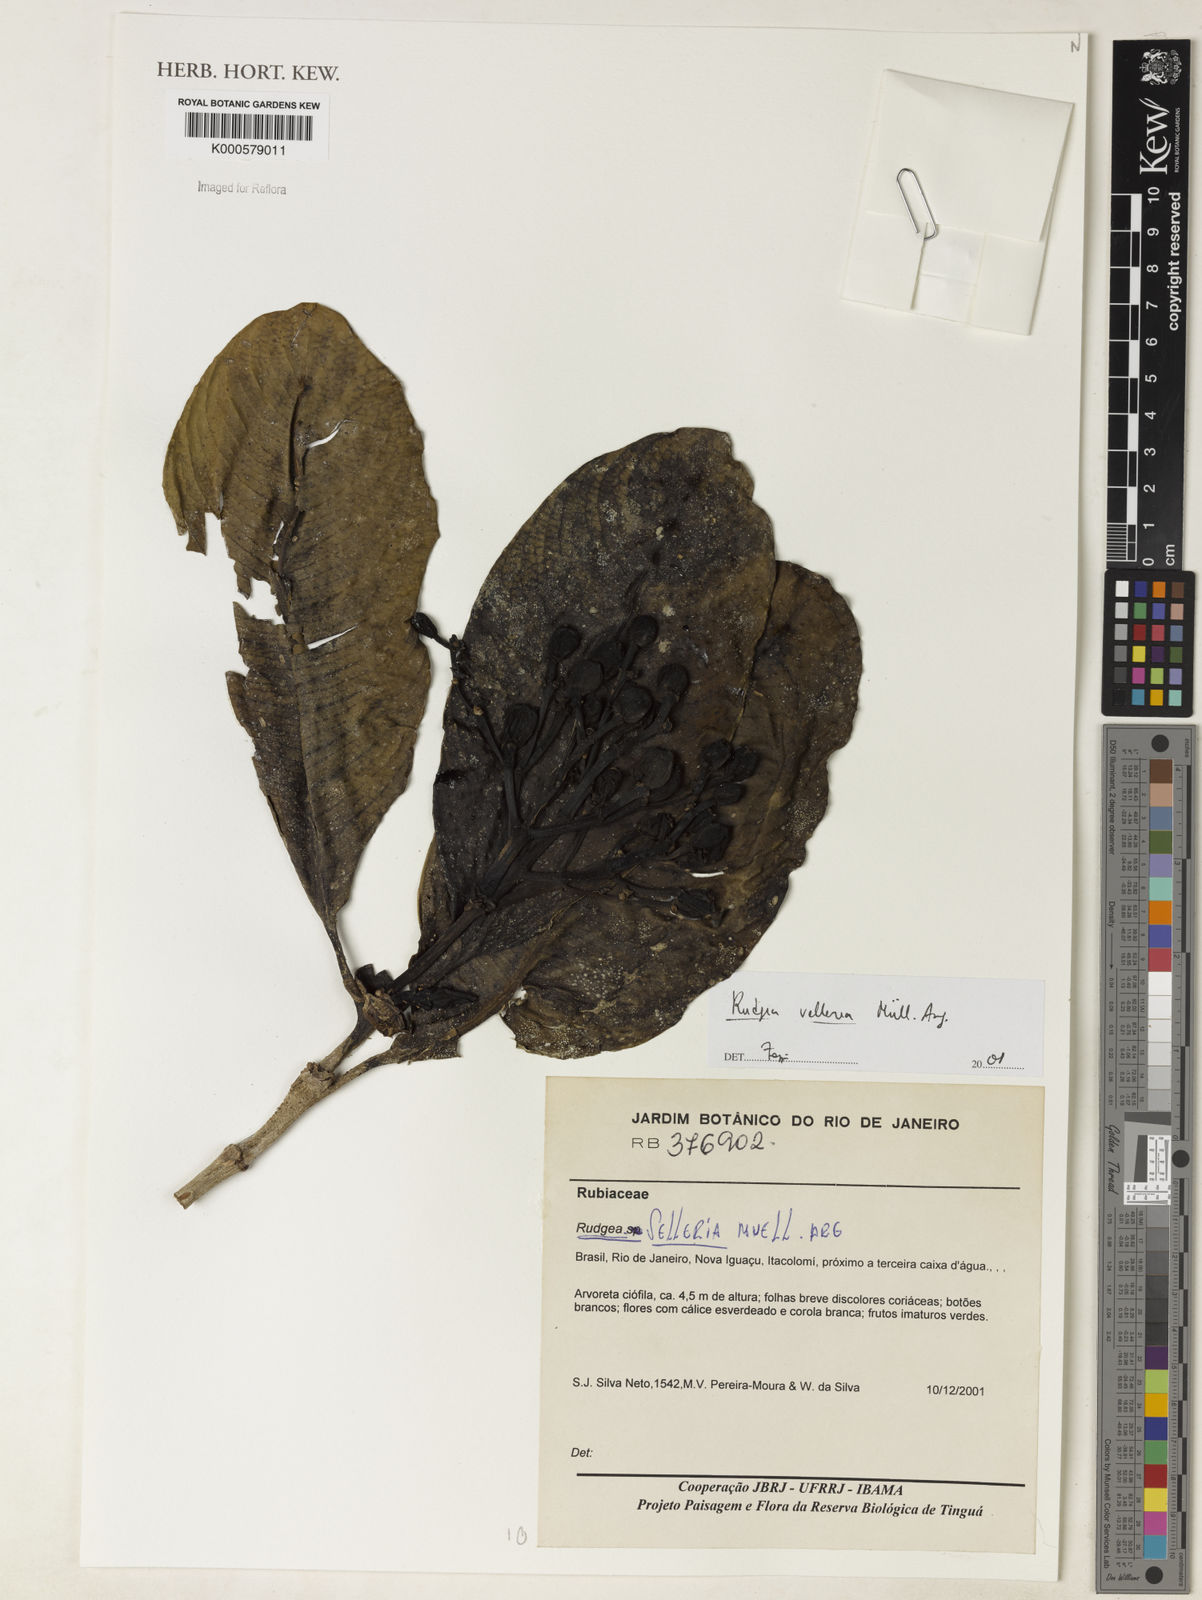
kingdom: Plantae
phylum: Tracheophyta
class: Magnoliopsida
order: Gentianales
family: Rubiaceae
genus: Rudgea
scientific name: Rudgea vellerea
